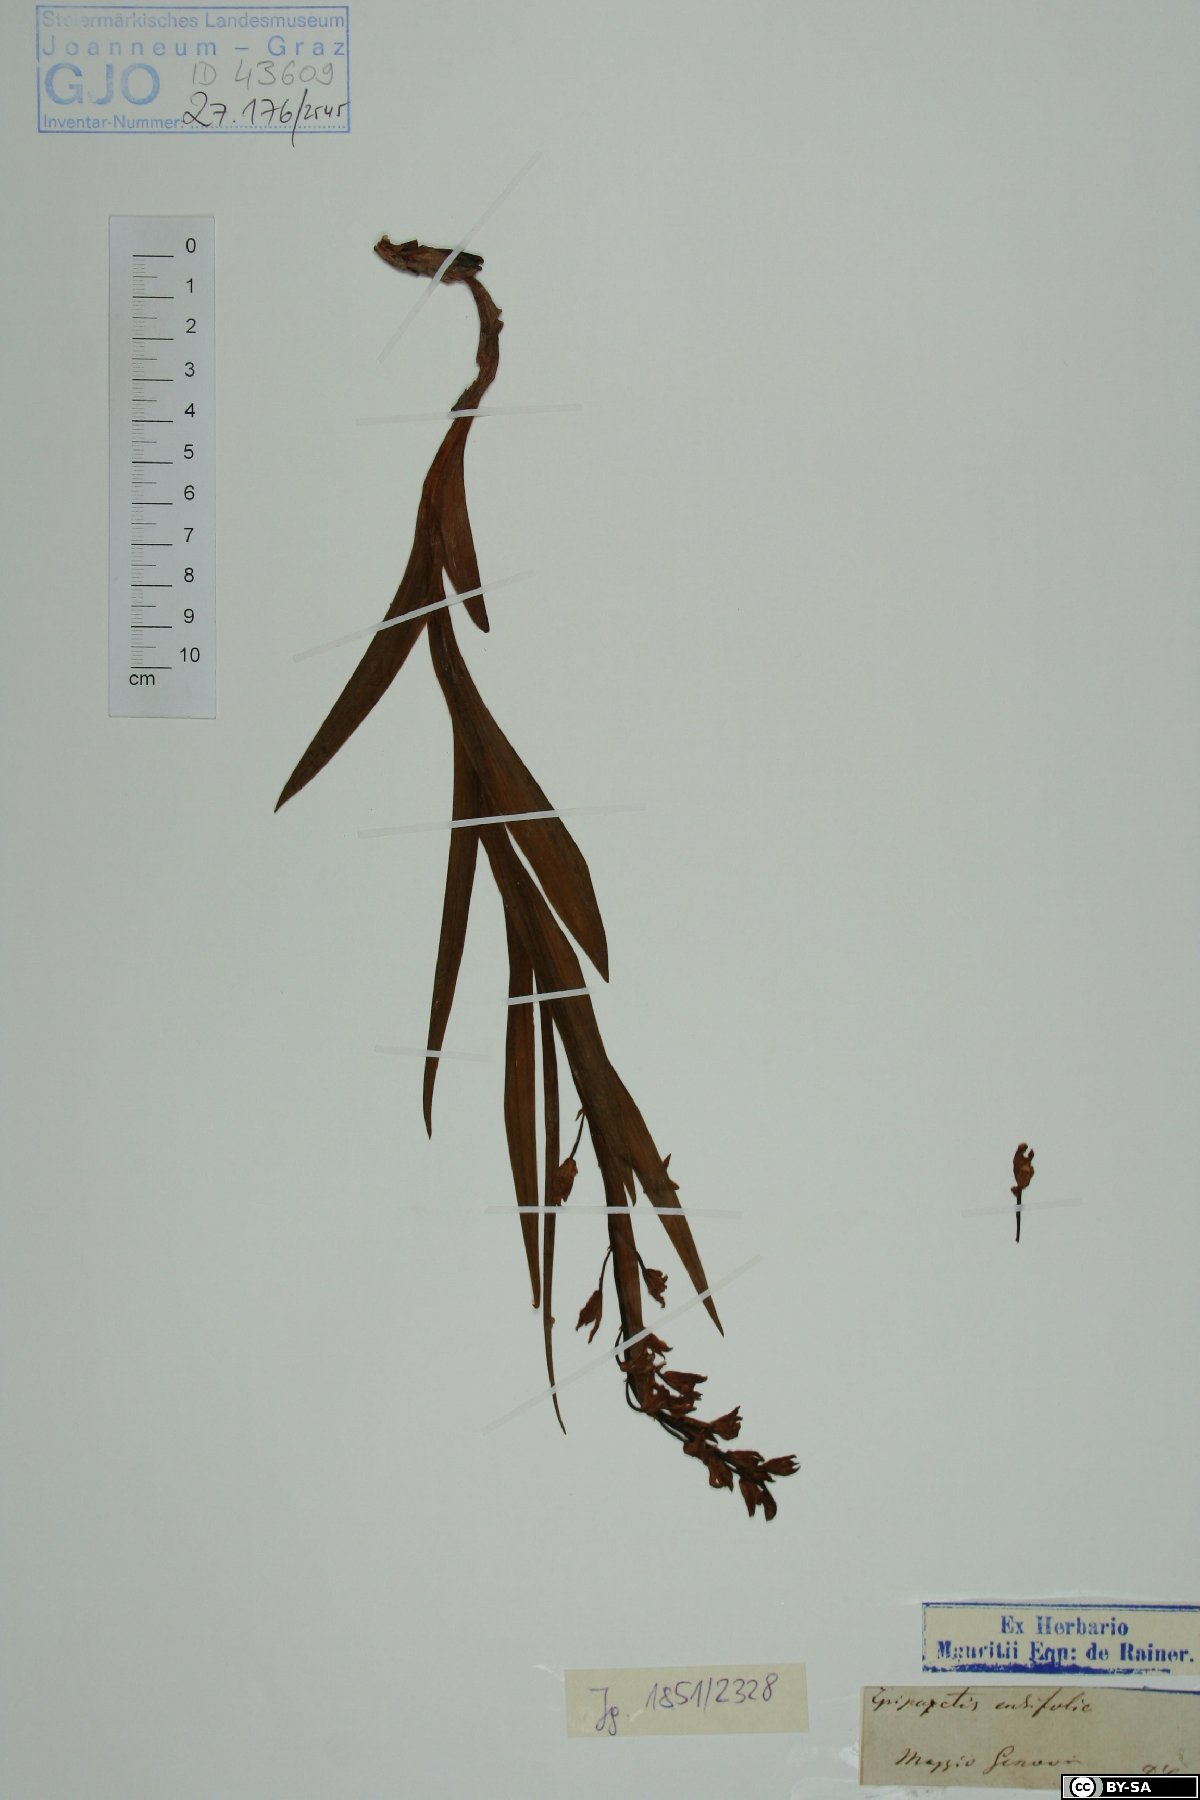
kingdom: Plantae
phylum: Tracheophyta
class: Liliopsida
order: Asparagales
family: Orchidaceae
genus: Cephalanthera
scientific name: Cephalanthera longifolia
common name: Narrow-leaved helleborine
